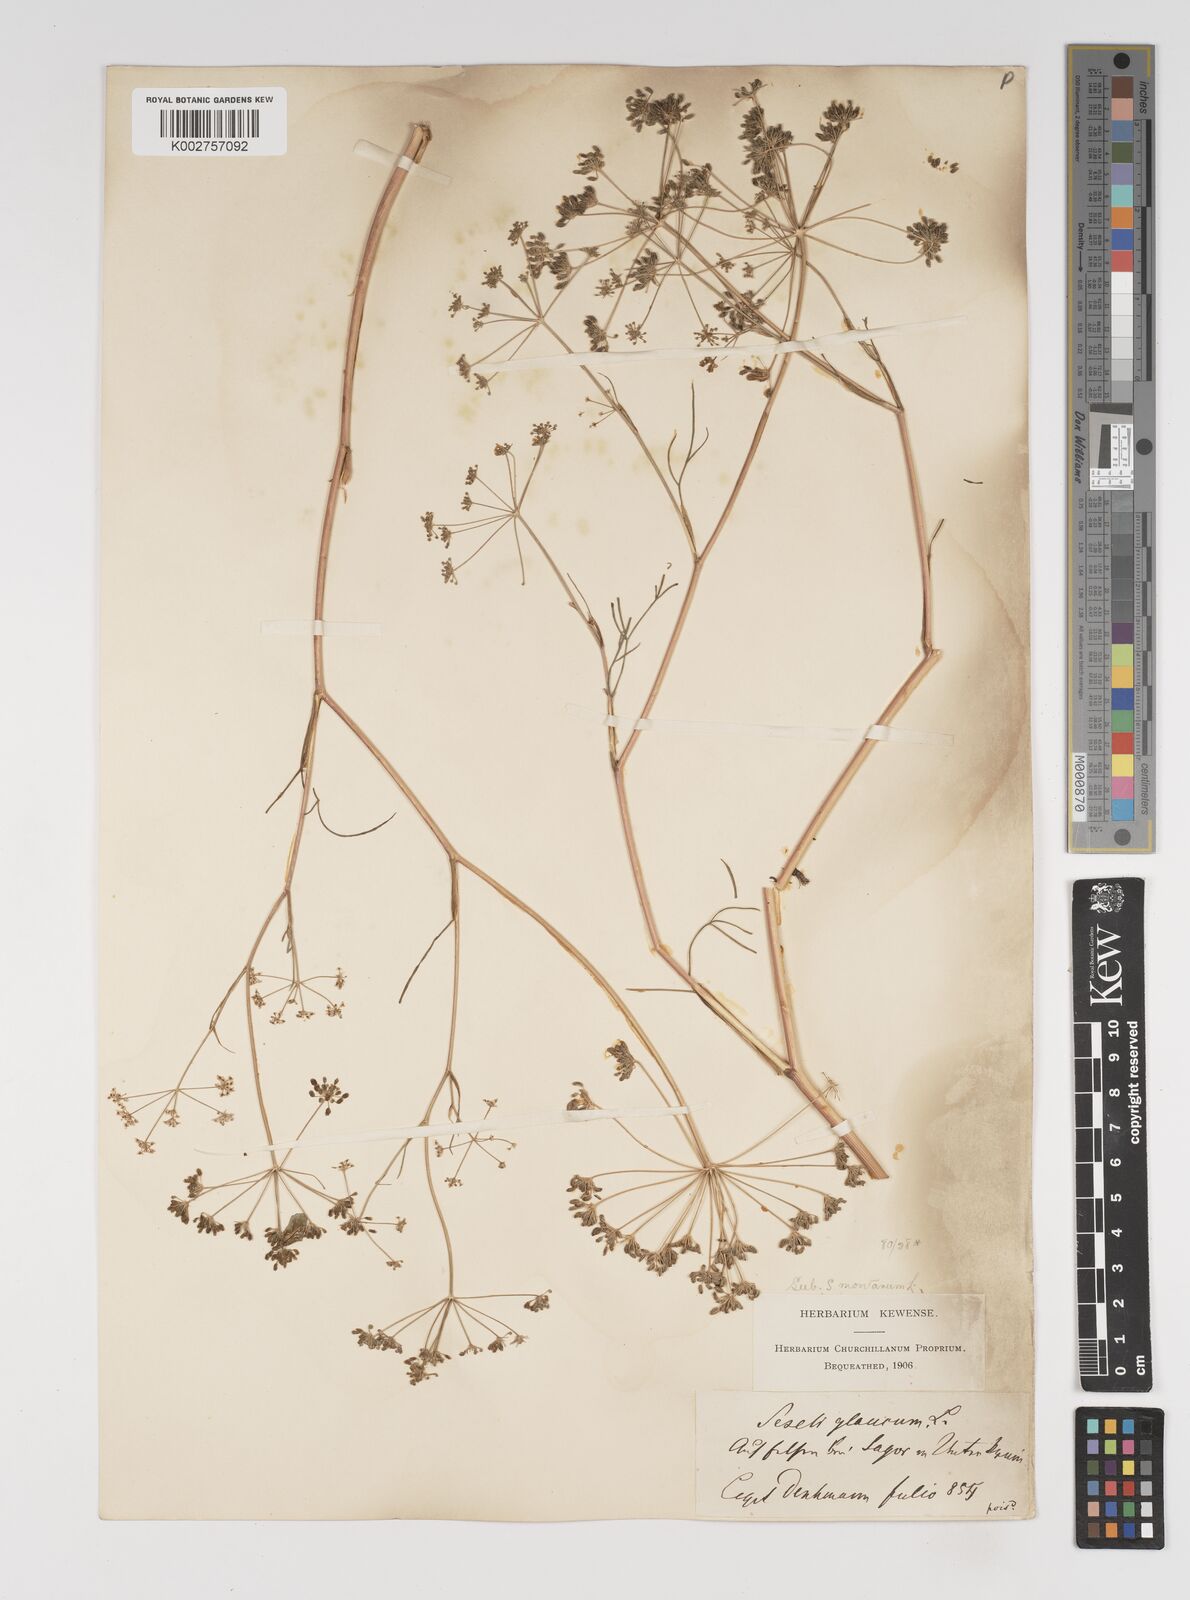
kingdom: Plantae
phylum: Tracheophyta
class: Magnoliopsida
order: Apiales
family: Apiaceae
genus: Seseli
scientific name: Seseli montanum
